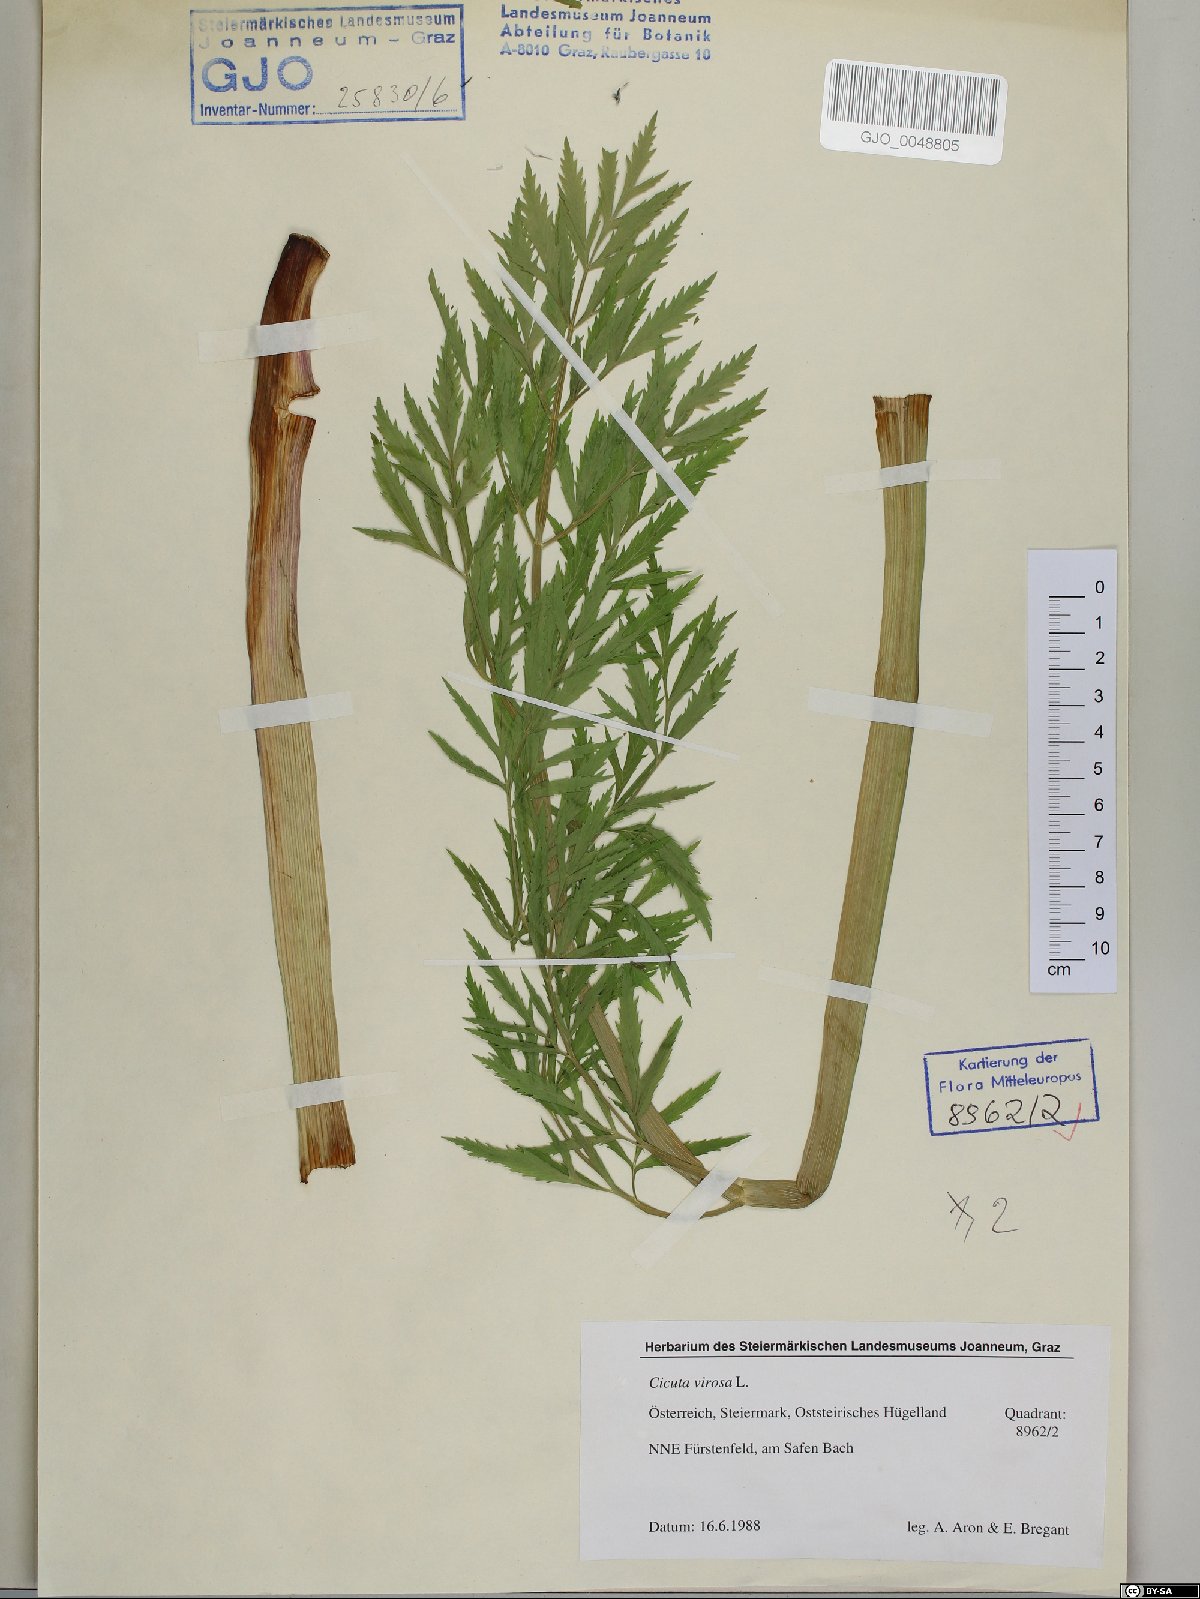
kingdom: Plantae
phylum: Tracheophyta
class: Magnoliopsida
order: Apiales
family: Apiaceae
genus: Cicuta
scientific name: Cicuta virosa
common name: Cowbane
